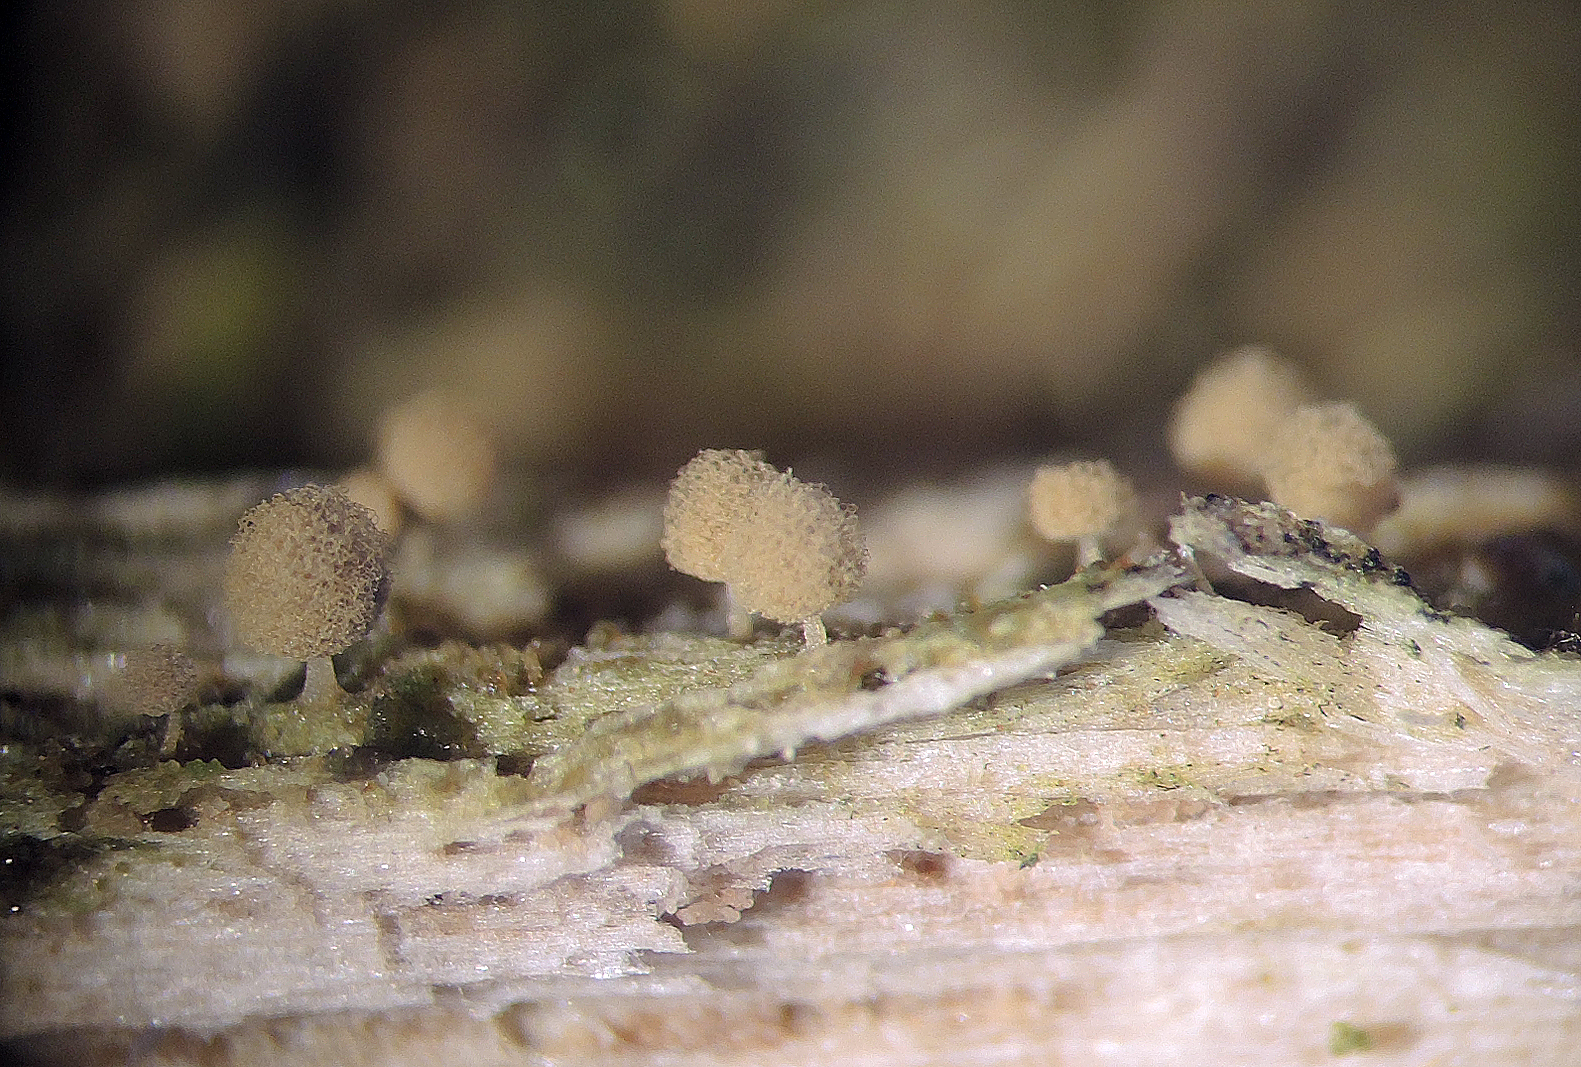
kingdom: Protozoa
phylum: Mycetozoa
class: Myxomycetes
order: Trichiales
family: Arcyriaceae
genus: Arcyria
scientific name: Arcyria pomiformis
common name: Golden apple slime mold
